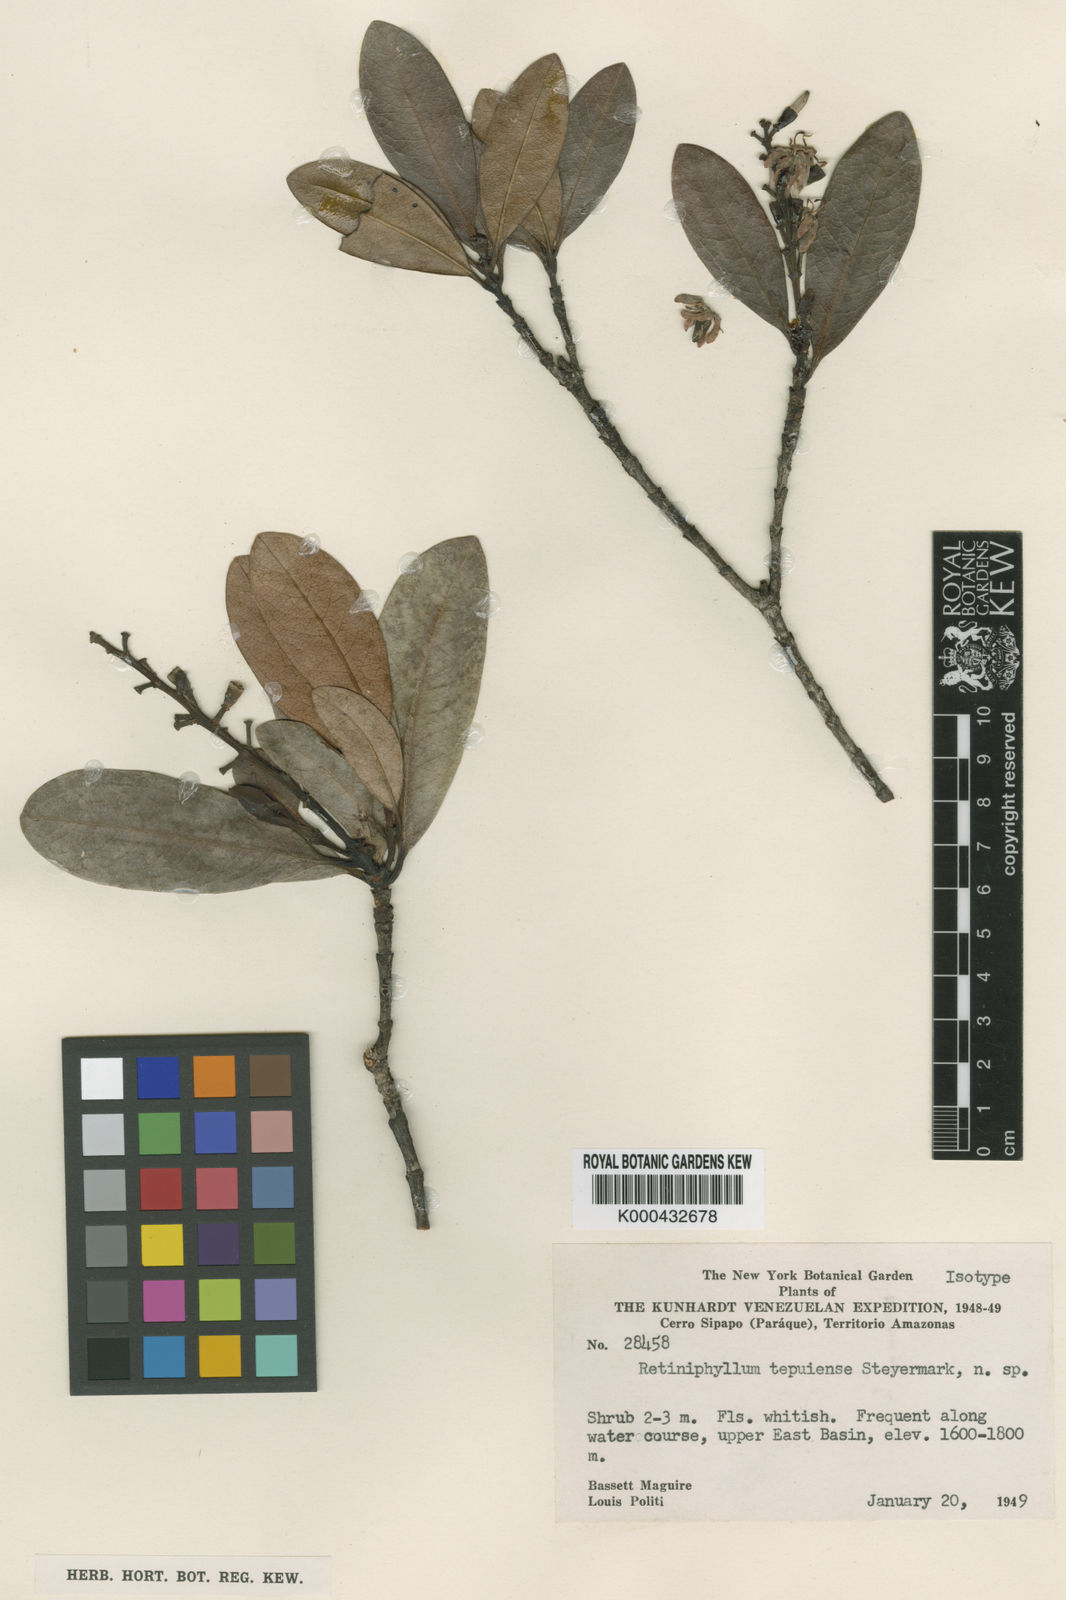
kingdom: Plantae
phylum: Tracheophyta
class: Magnoliopsida
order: Gentianales
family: Rubiaceae
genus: Retiniphyllum
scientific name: Retiniphyllum tepuiense
